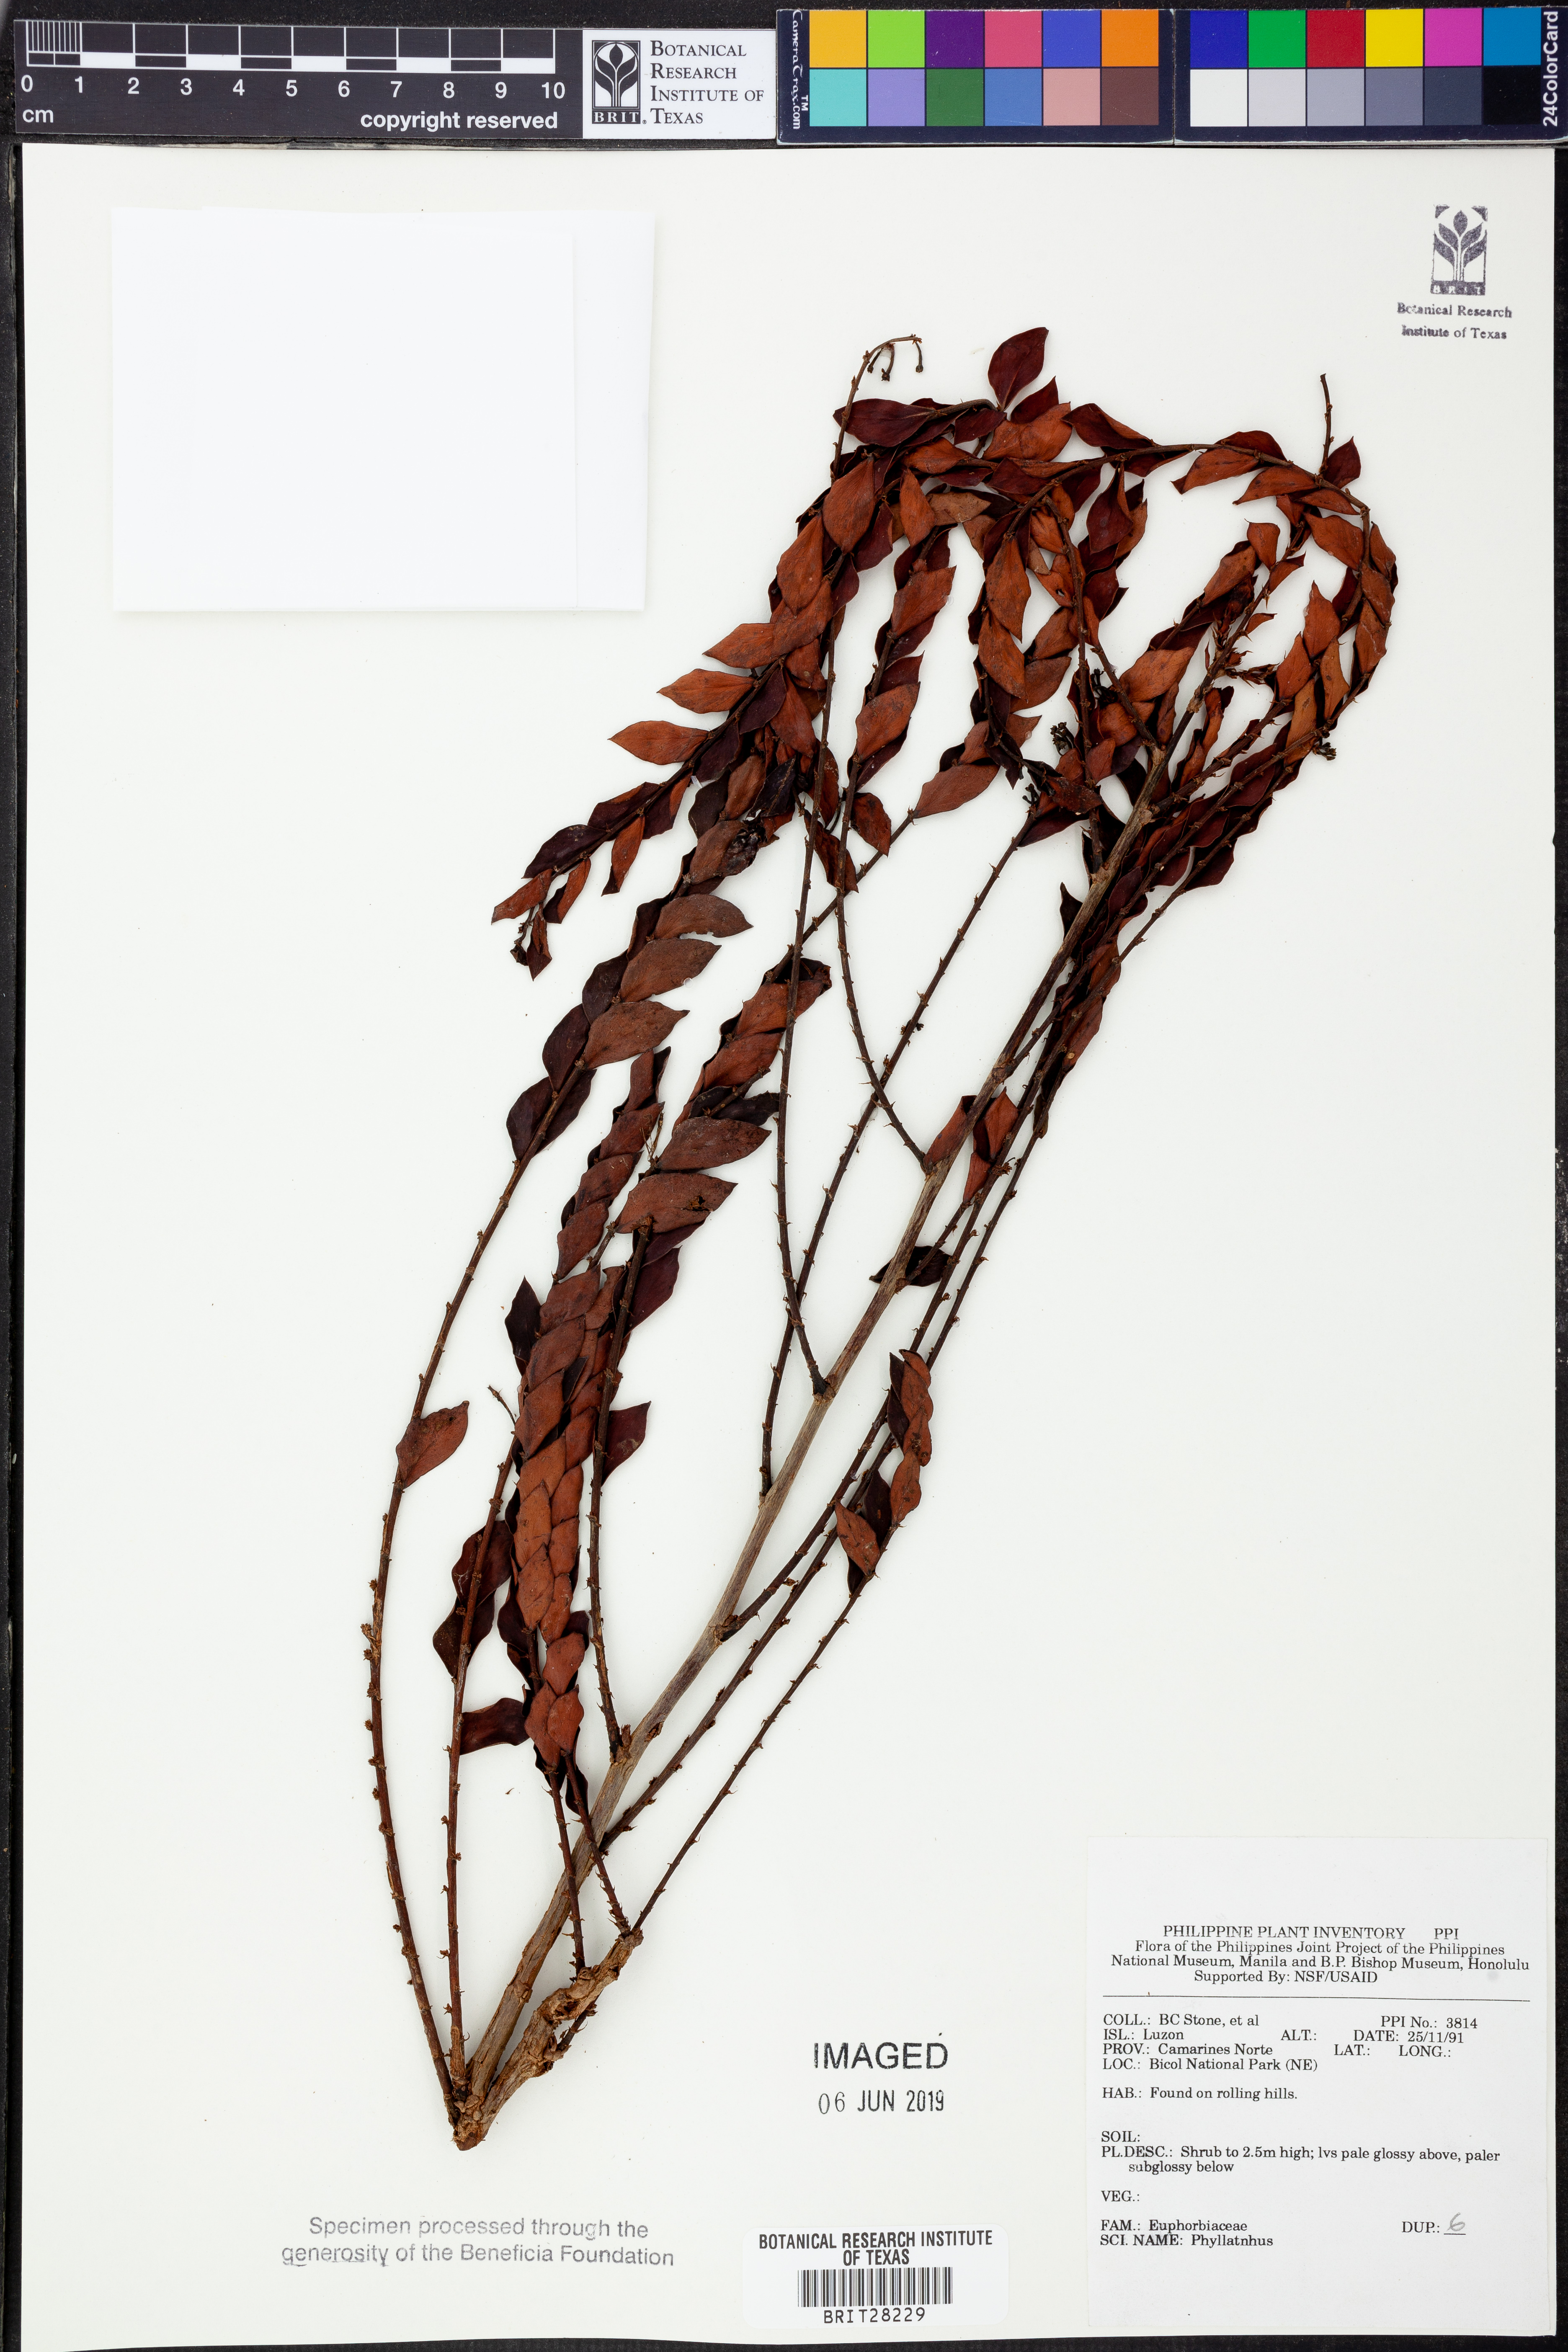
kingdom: Plantae
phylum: Tracheophyta
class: Magnoliopsida
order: Malpighiales
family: Phyllanthaceae
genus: Phyllanthus
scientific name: Phyllanthus
